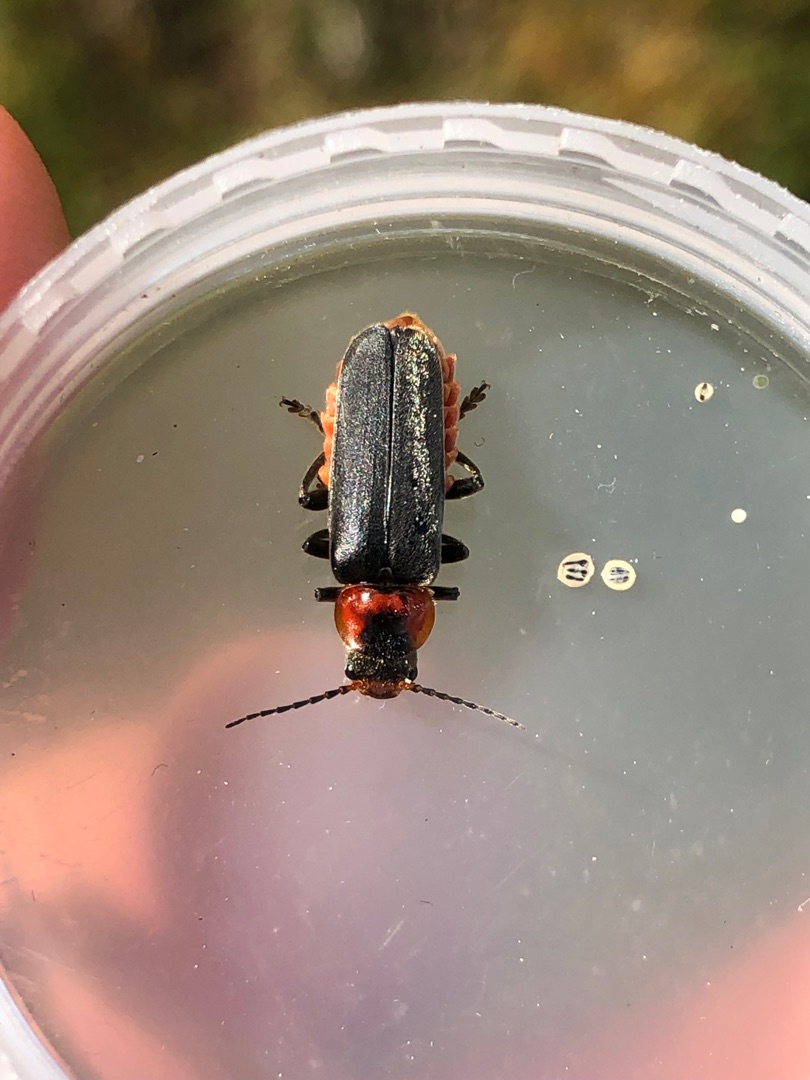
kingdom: Animalia
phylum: Arthropoda
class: Insecta
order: Coleoptera
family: Cantharidae
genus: Cantharis
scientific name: Cantharis fusca
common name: Stor blødvinge
